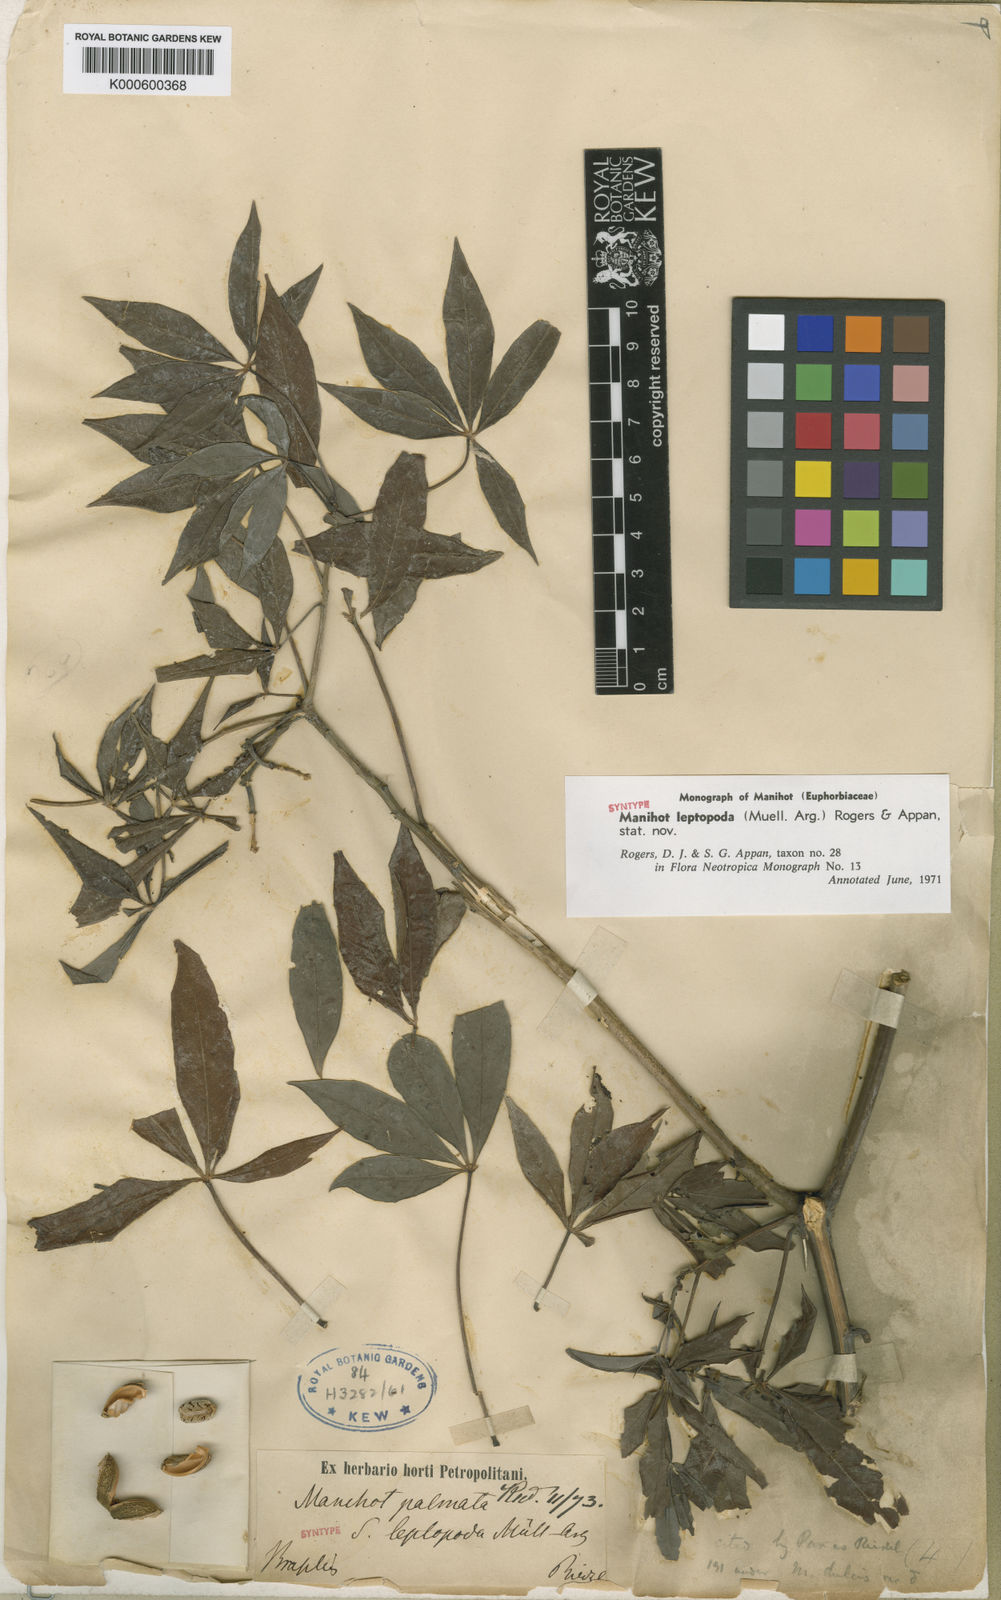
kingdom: Plantae
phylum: Tracheophyta
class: Magnoliopsida
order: Malpighiales
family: Euphorbiaceae
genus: Manihot
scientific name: Manihot
